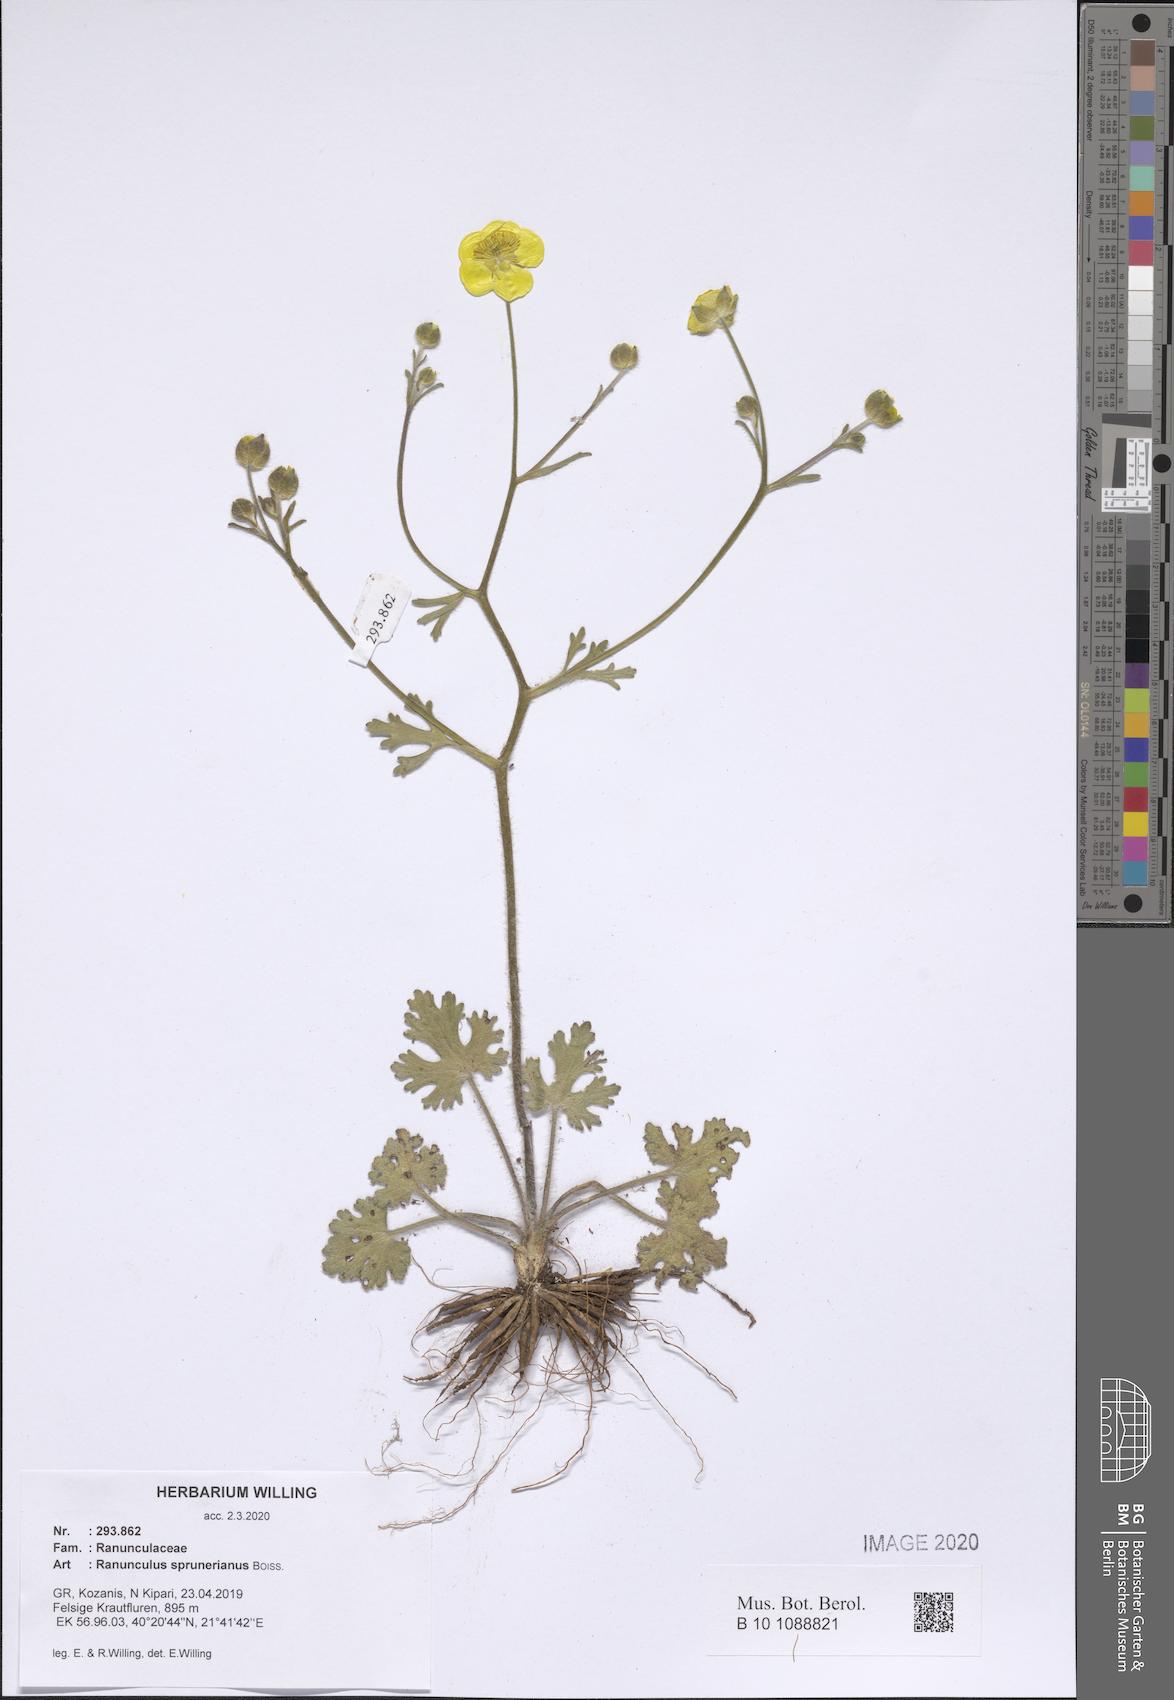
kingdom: Plantae
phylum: Tracheophyta
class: Magnoliopsida
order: Ranunculales
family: Ranunculaceae
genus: Ranunculus
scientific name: Ranunculus sprunerianus
